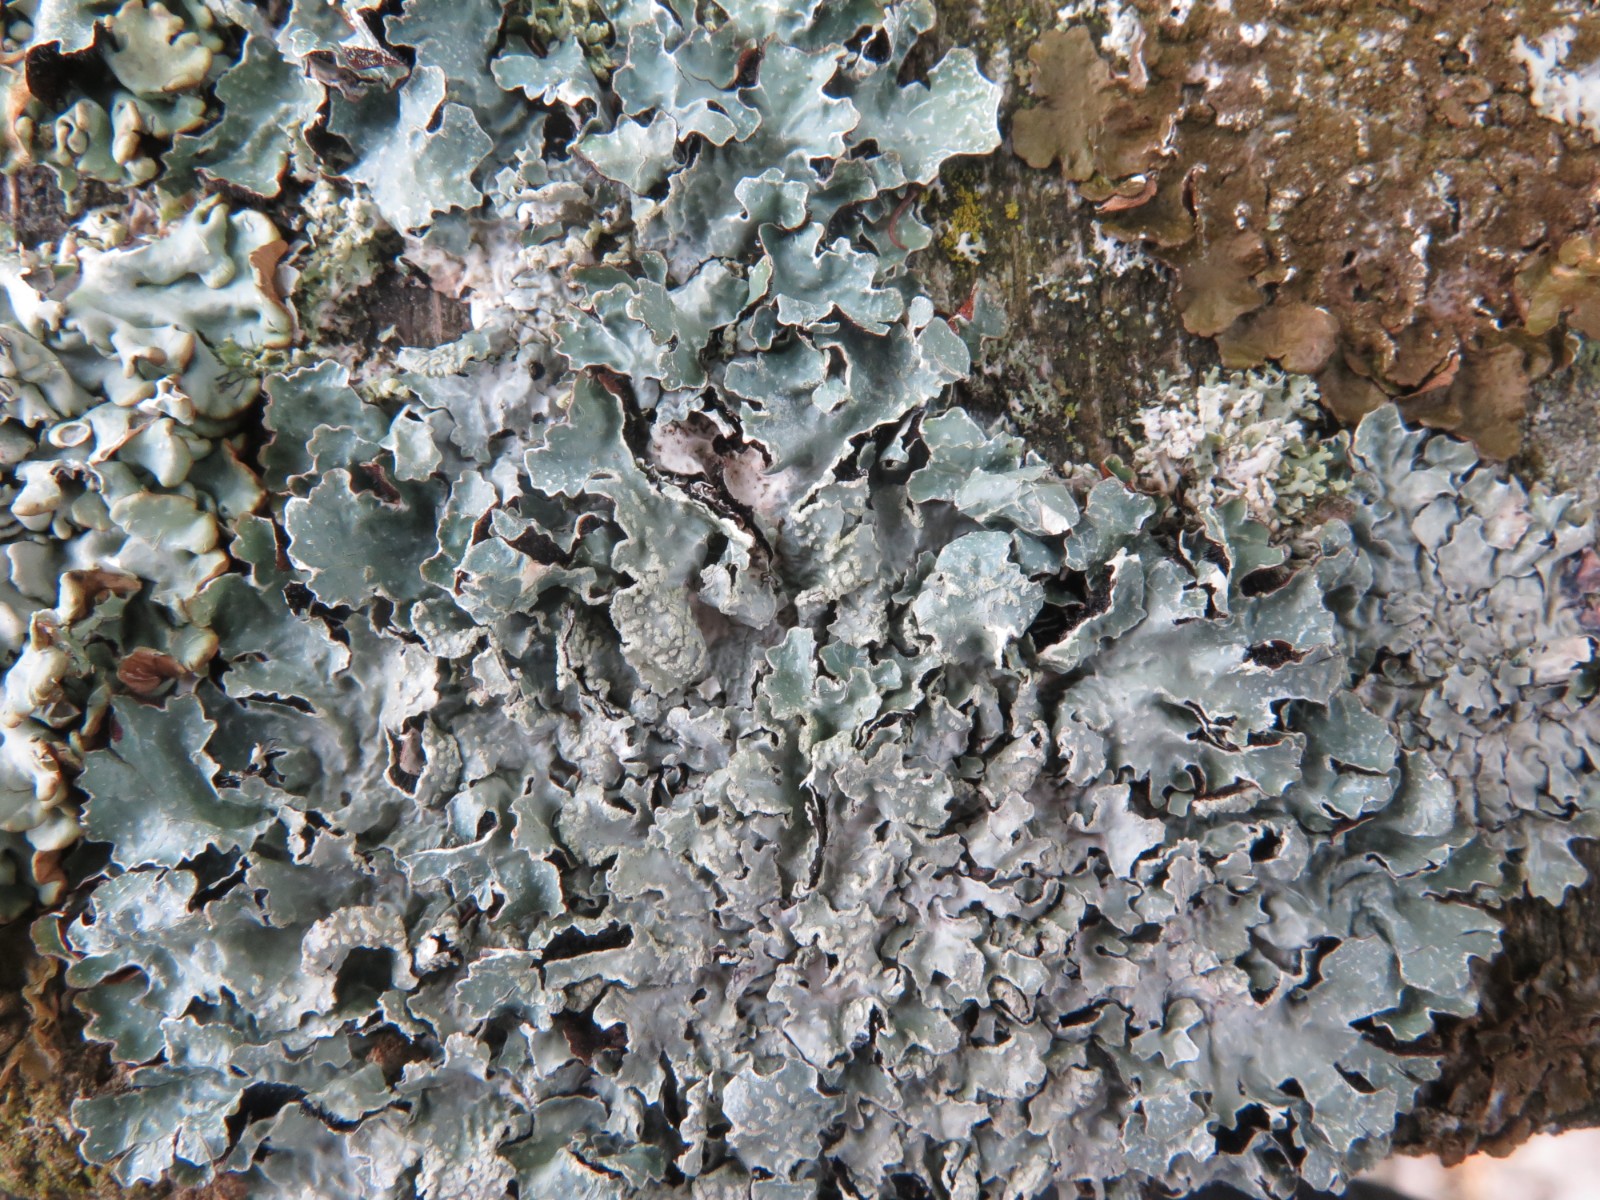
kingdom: Fungi
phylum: Ascomycota
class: Lecanoromycetes
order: Lecanorales
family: Parmeliaceae
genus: Parmelia
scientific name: Parmelia sulcata
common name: rynket skållav
